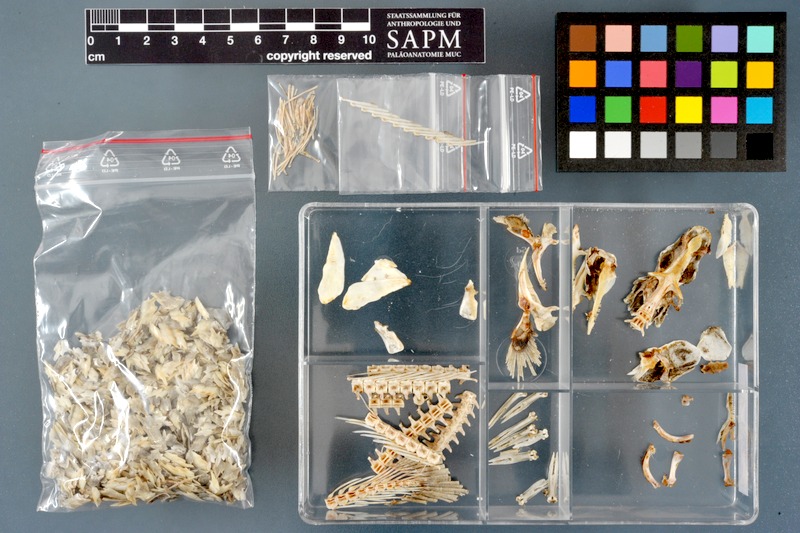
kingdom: Animalia
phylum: Chordata
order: Polypteriformes
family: Polypteridae
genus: Polypterus
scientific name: Polypterus senegalus
